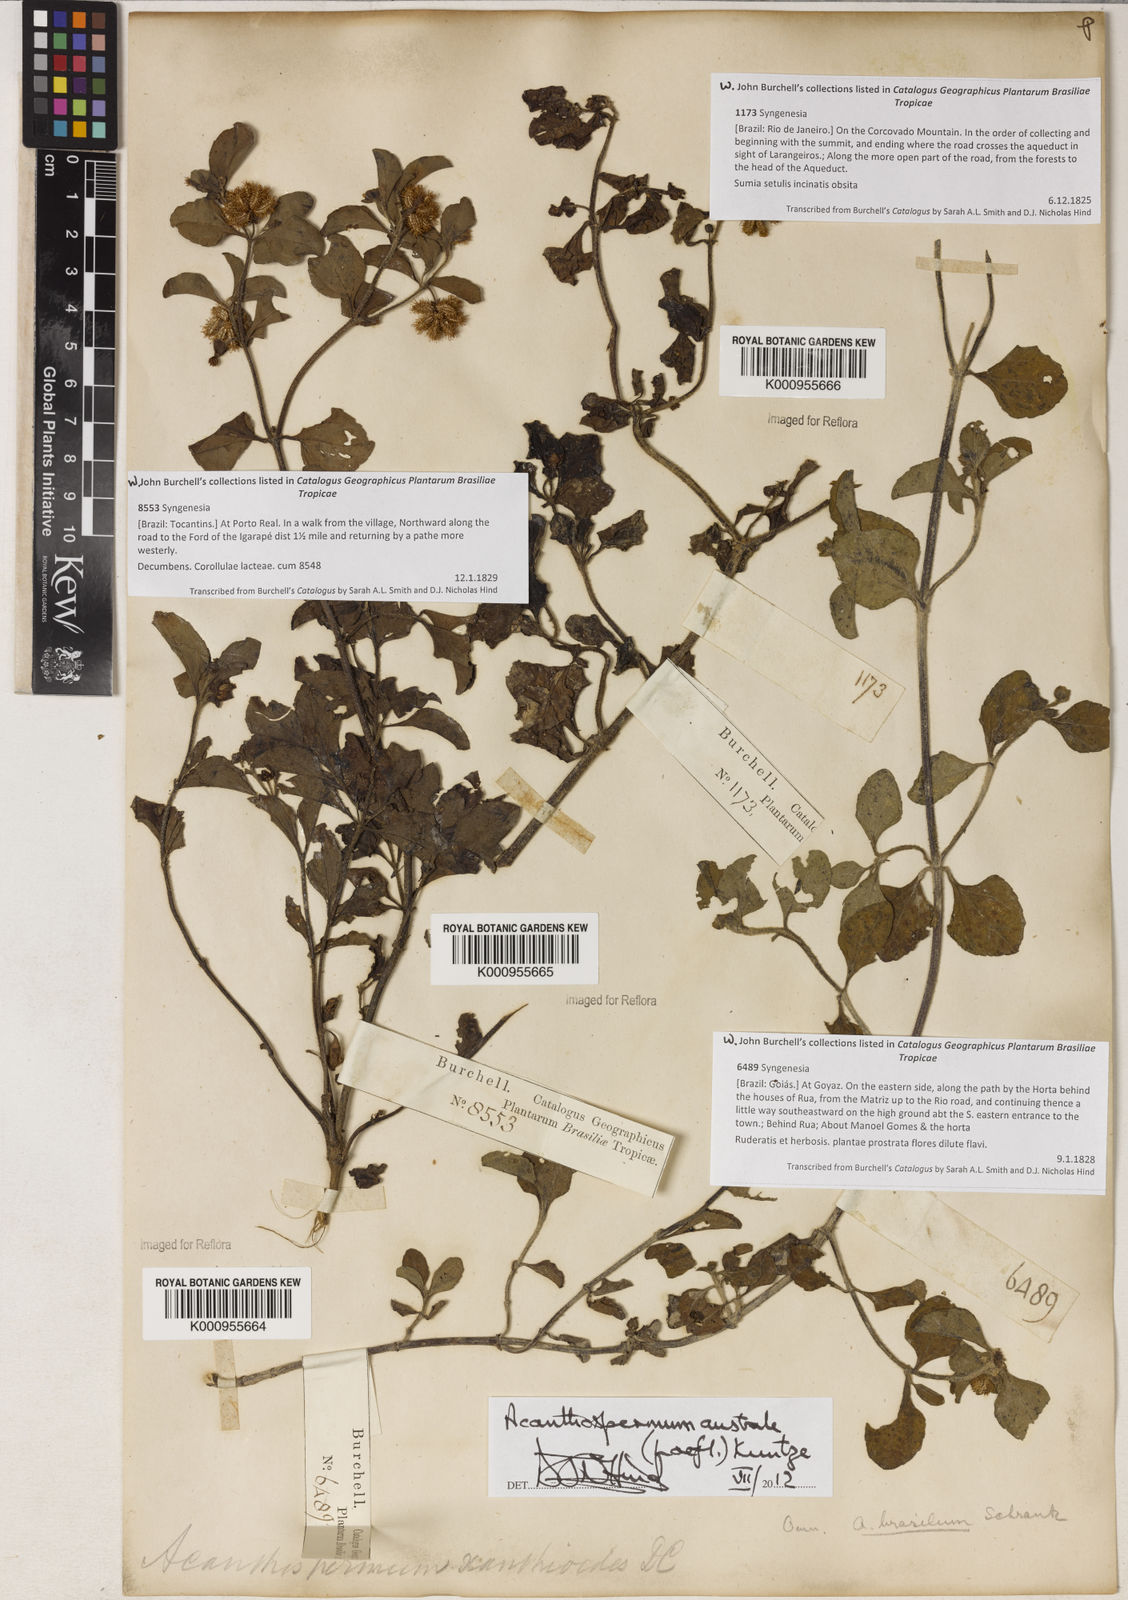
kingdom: Plantae
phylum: Tracheophyta
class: Magnoliopsida
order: Asterales
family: Asteraceae
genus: Acanthospermum
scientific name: Acanthospermum australe
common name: Paraguayan starbur
